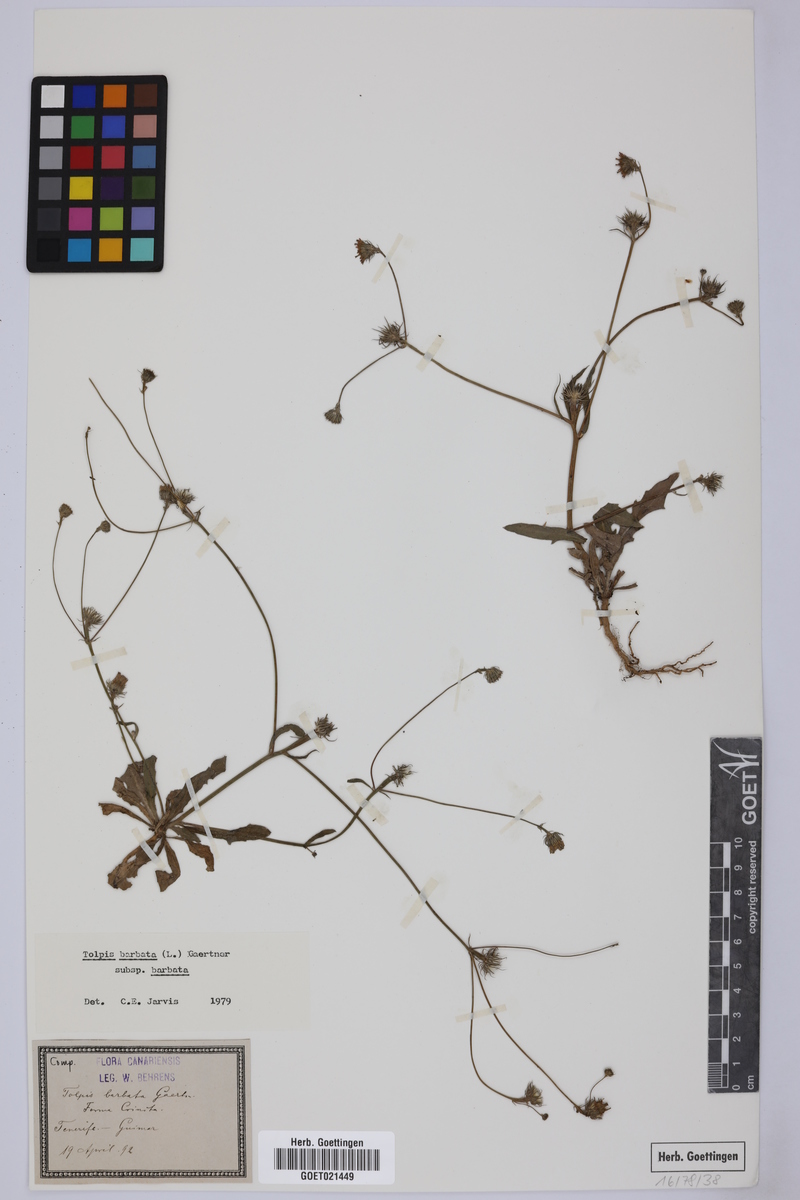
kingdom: Plantae
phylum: Tracheophyta
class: Magnoliopsida
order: Asterales
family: Asteraceae
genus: Tolpis
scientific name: Tolpis barbata
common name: Yellow hawkweed
